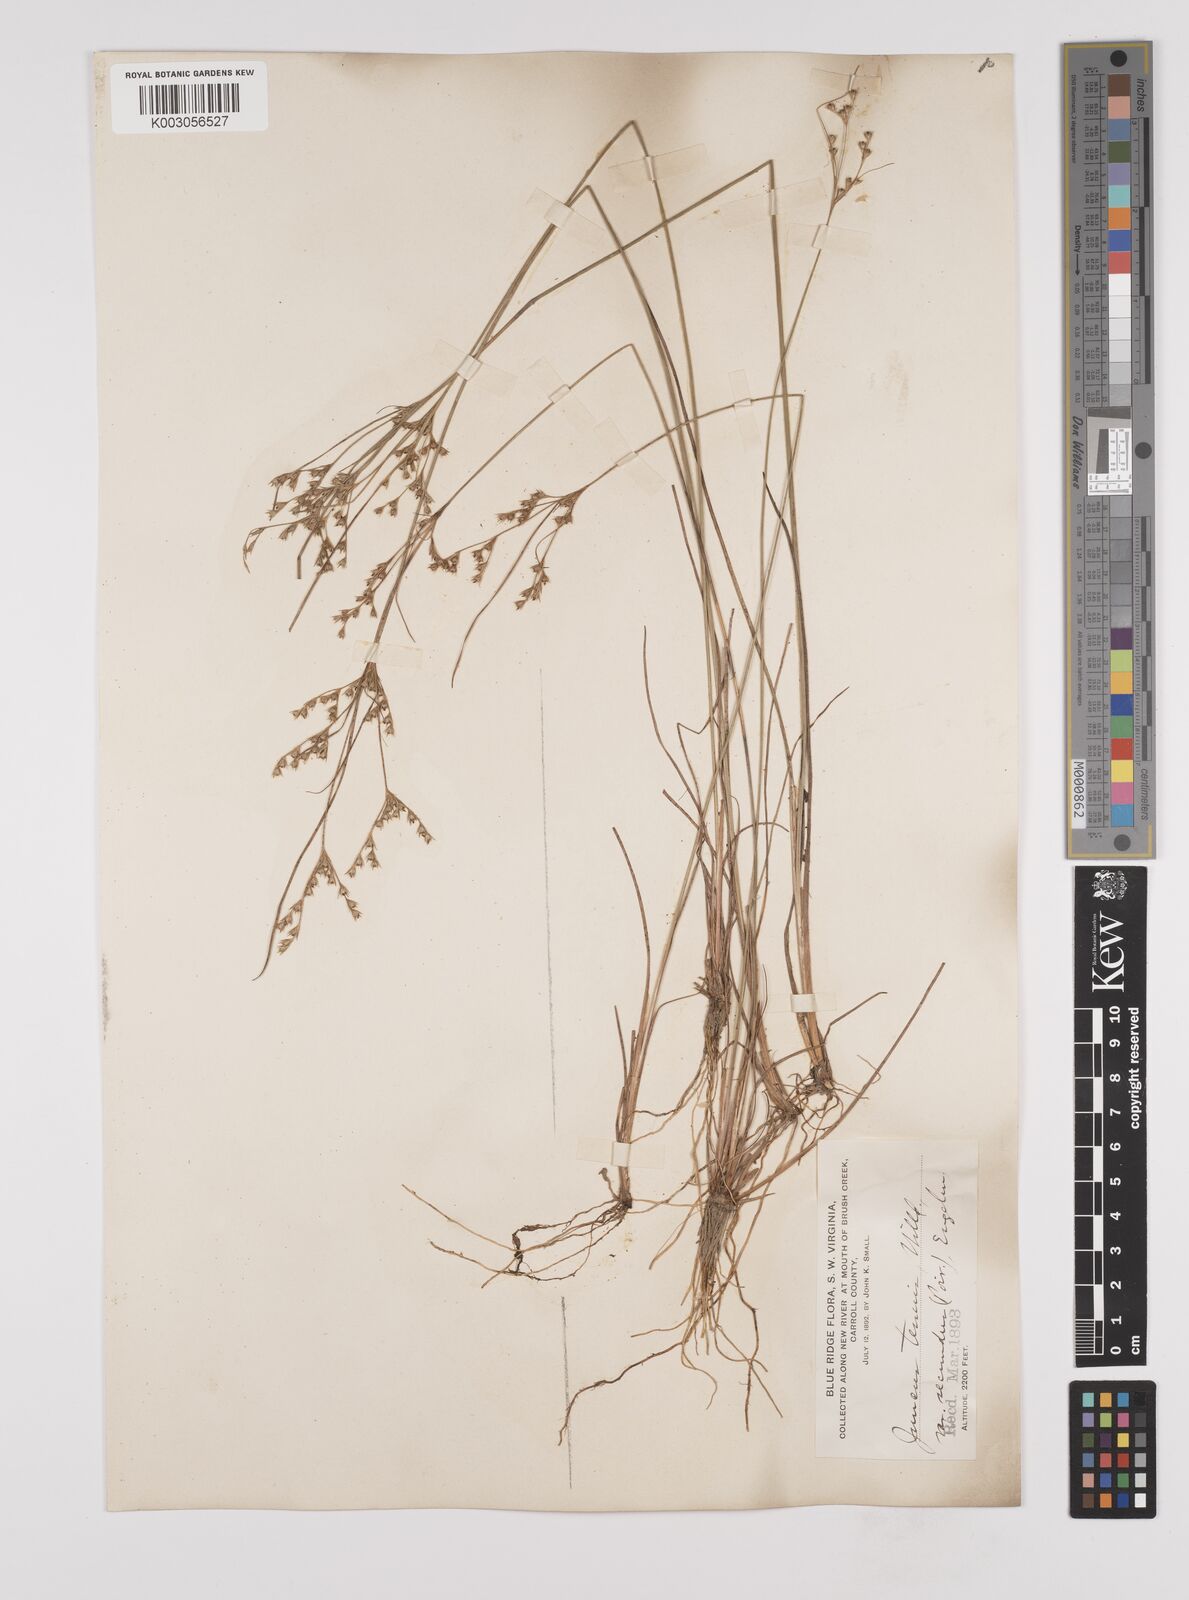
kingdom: Plantae
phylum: Tracheophyta
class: Liliopsida
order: Poales
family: Juncaceae
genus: Juncus
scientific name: Juncus secundus
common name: Lopsided rush
